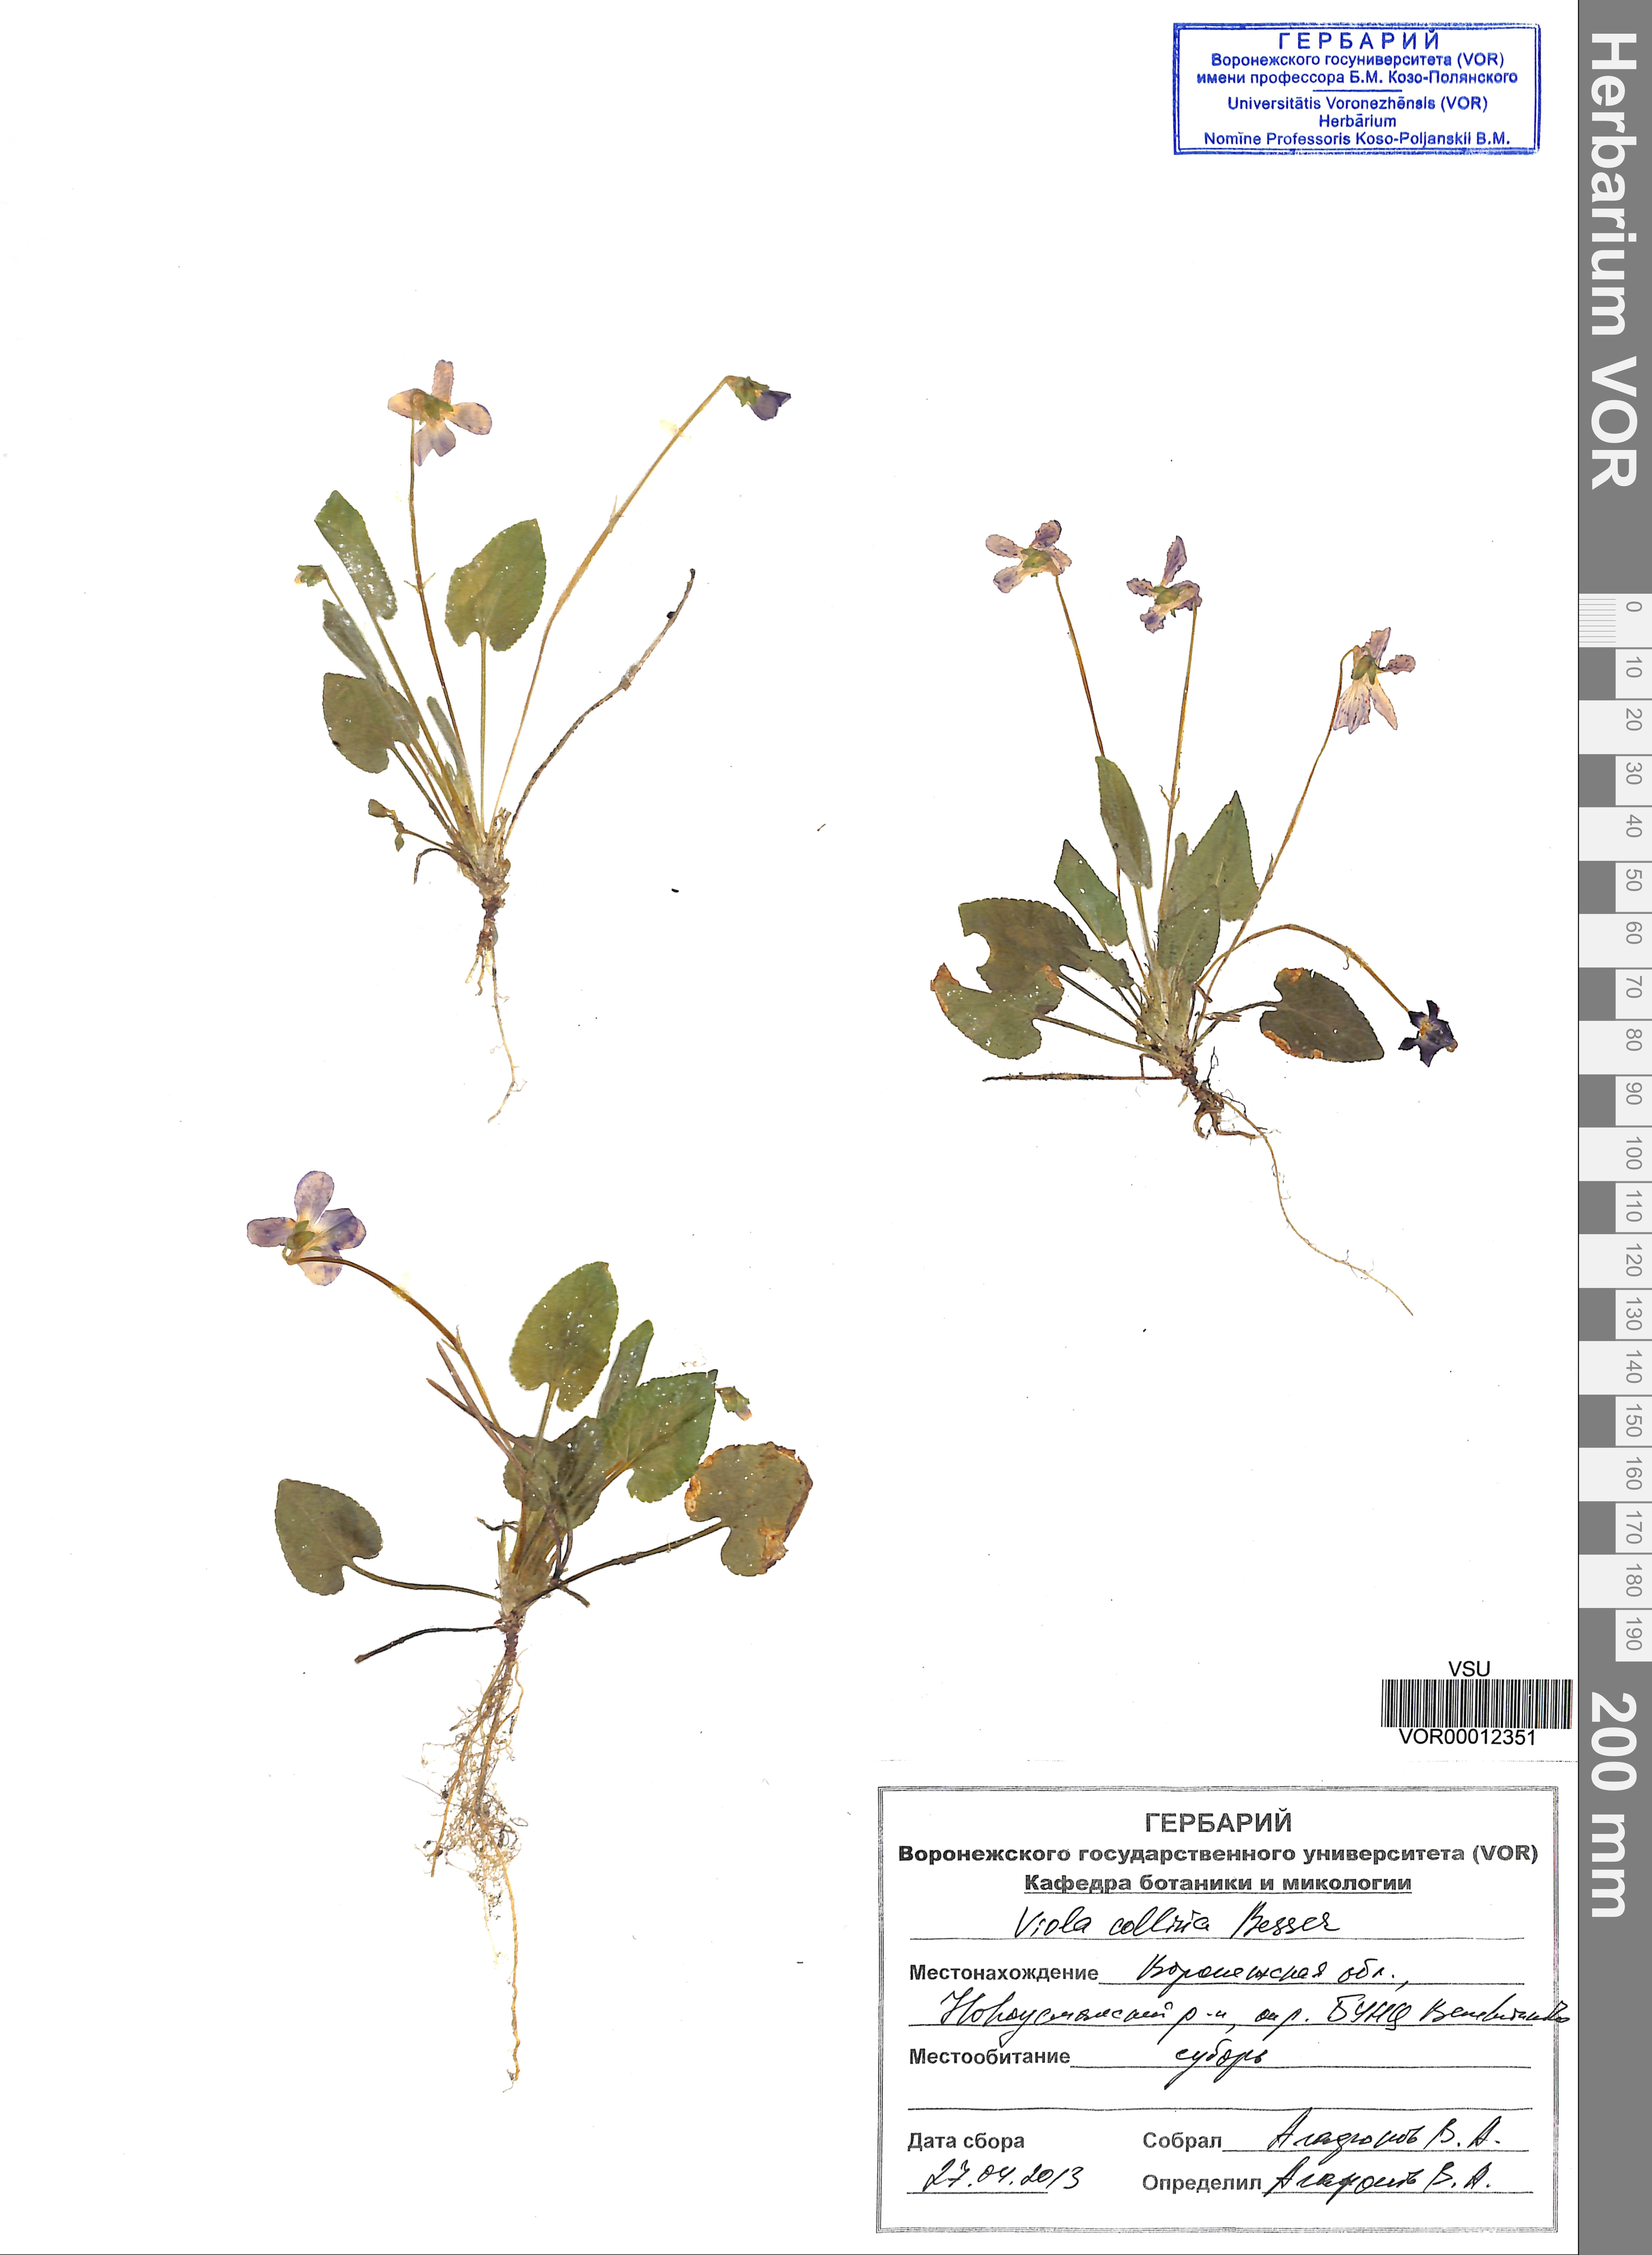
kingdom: Plantae
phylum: Tracheophyta
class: Magnoliopsida
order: Malpighiales
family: Violaceae
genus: Viola
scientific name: Viola collina
